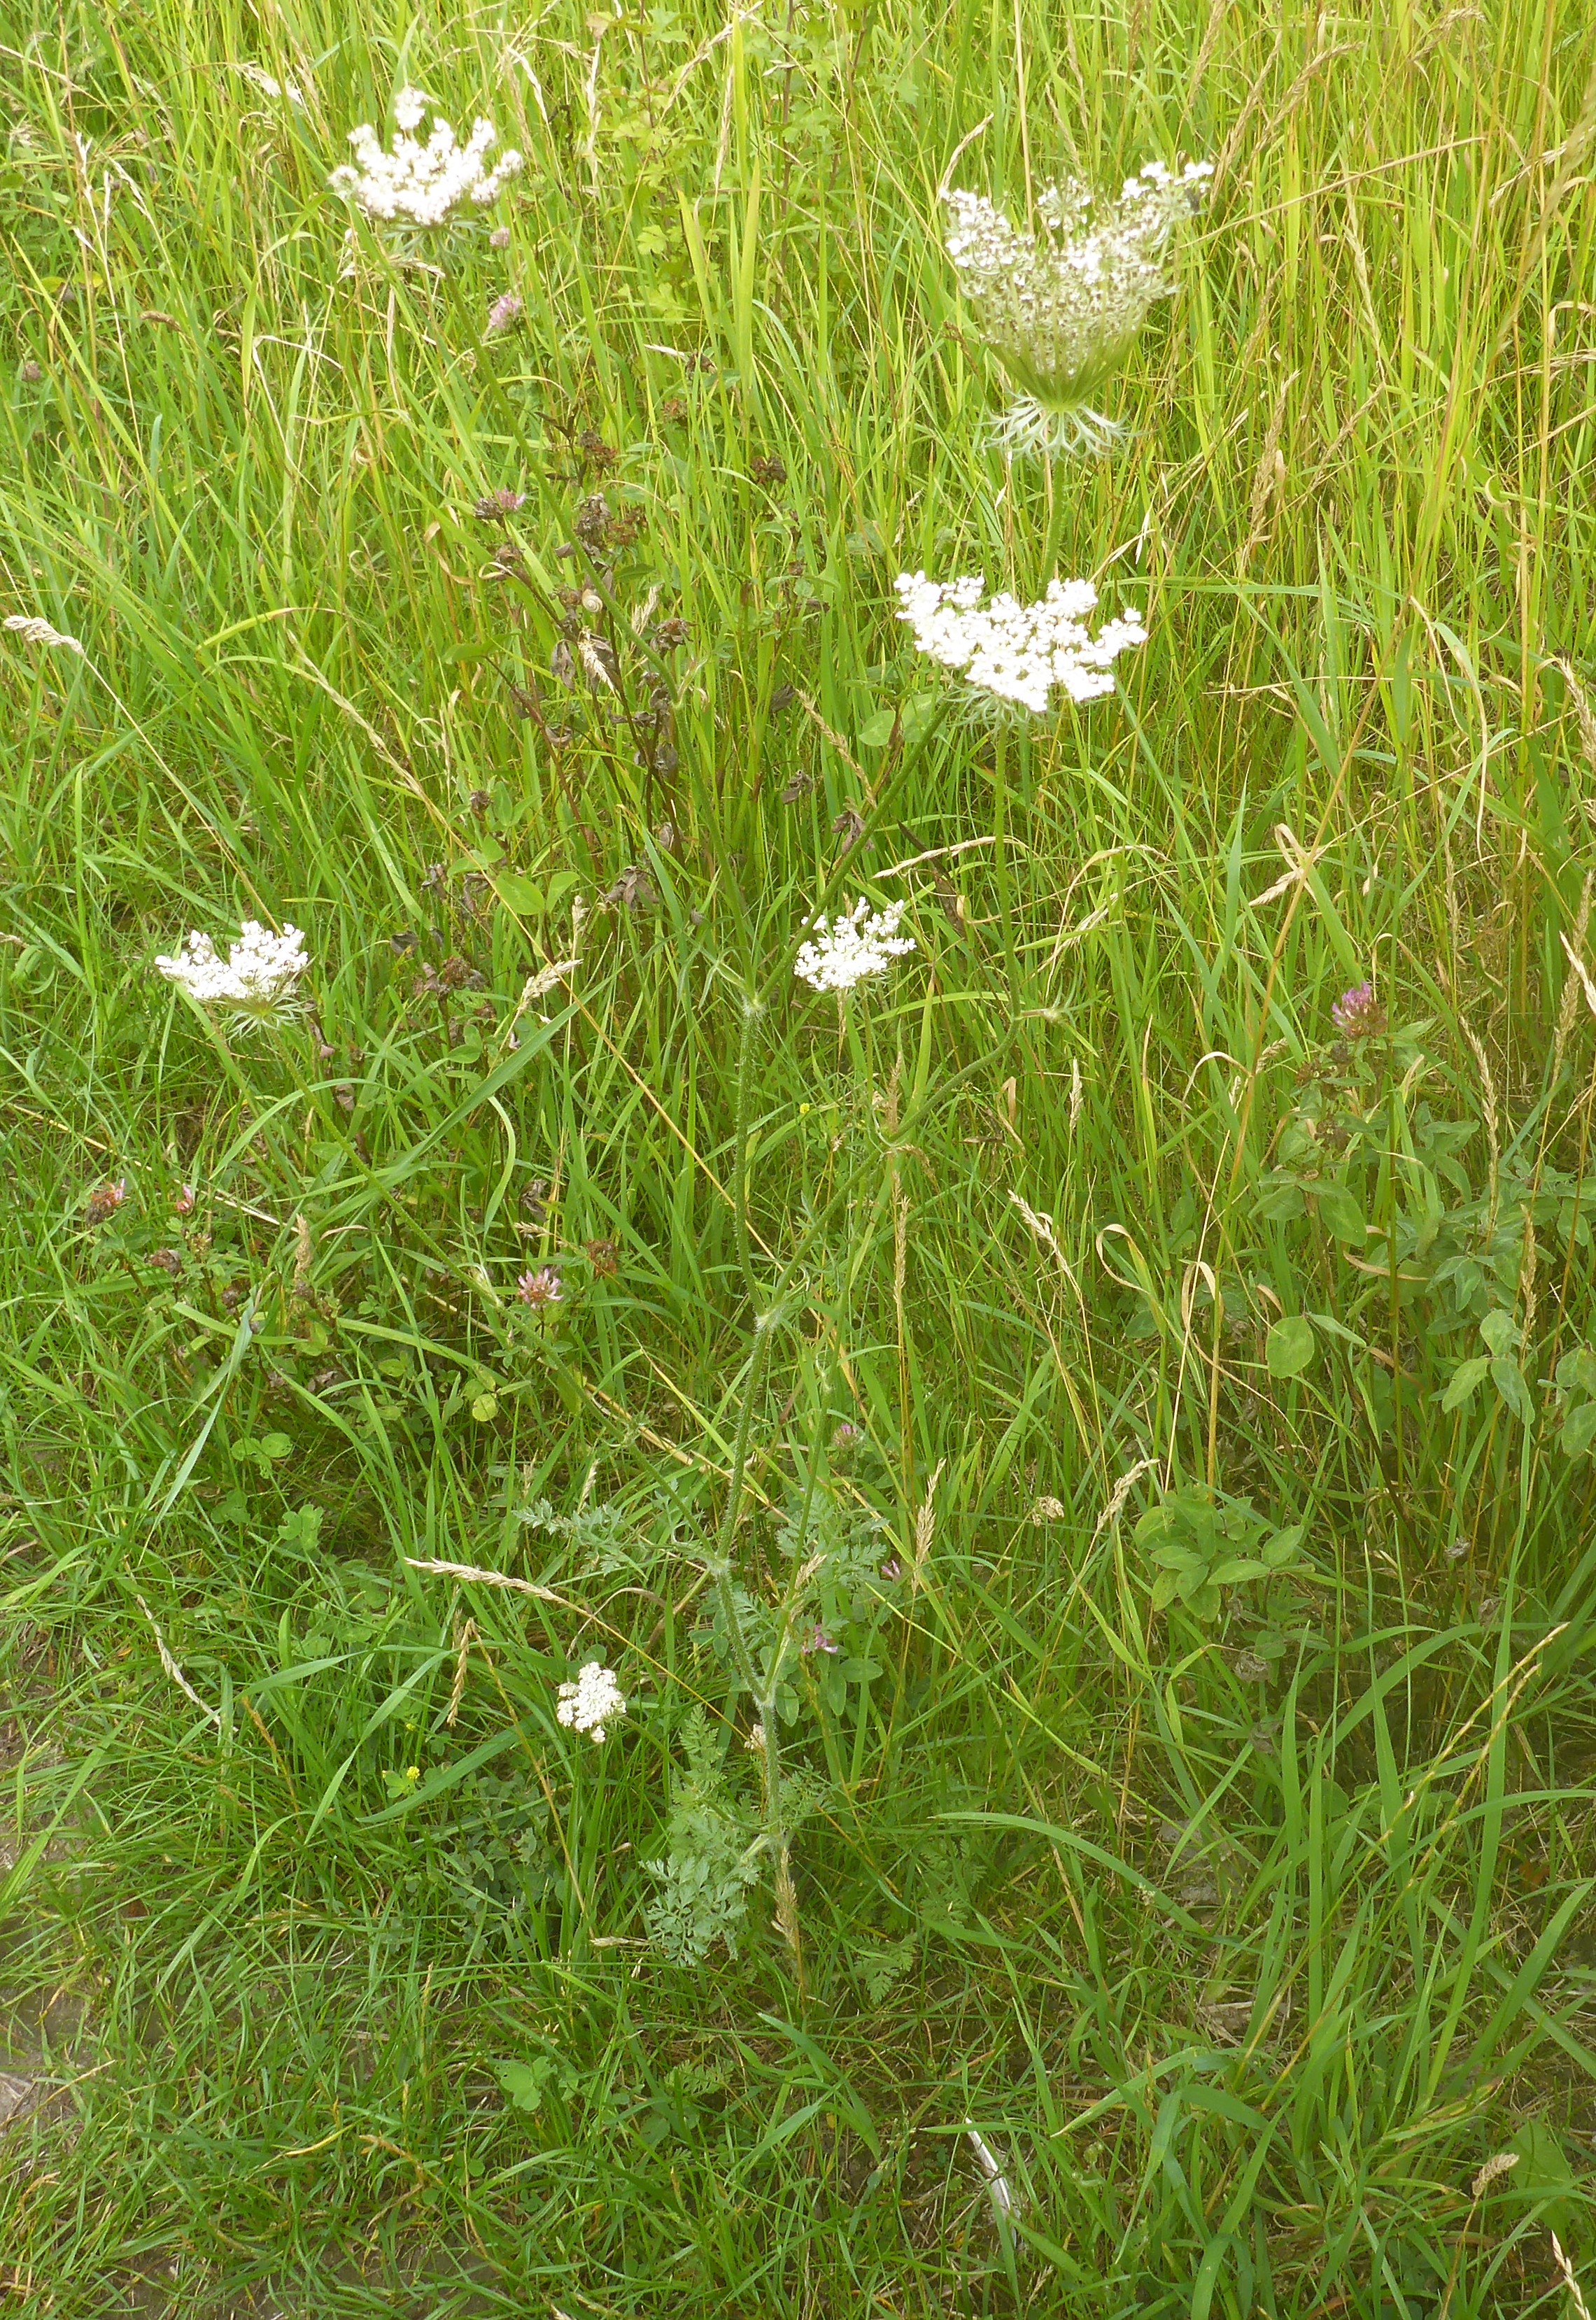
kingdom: Plantae
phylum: Tracheophyta
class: Magnoliopsida
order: Apiales
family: Apiaceae
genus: Daucus
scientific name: Daucus carota
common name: Gulerod
